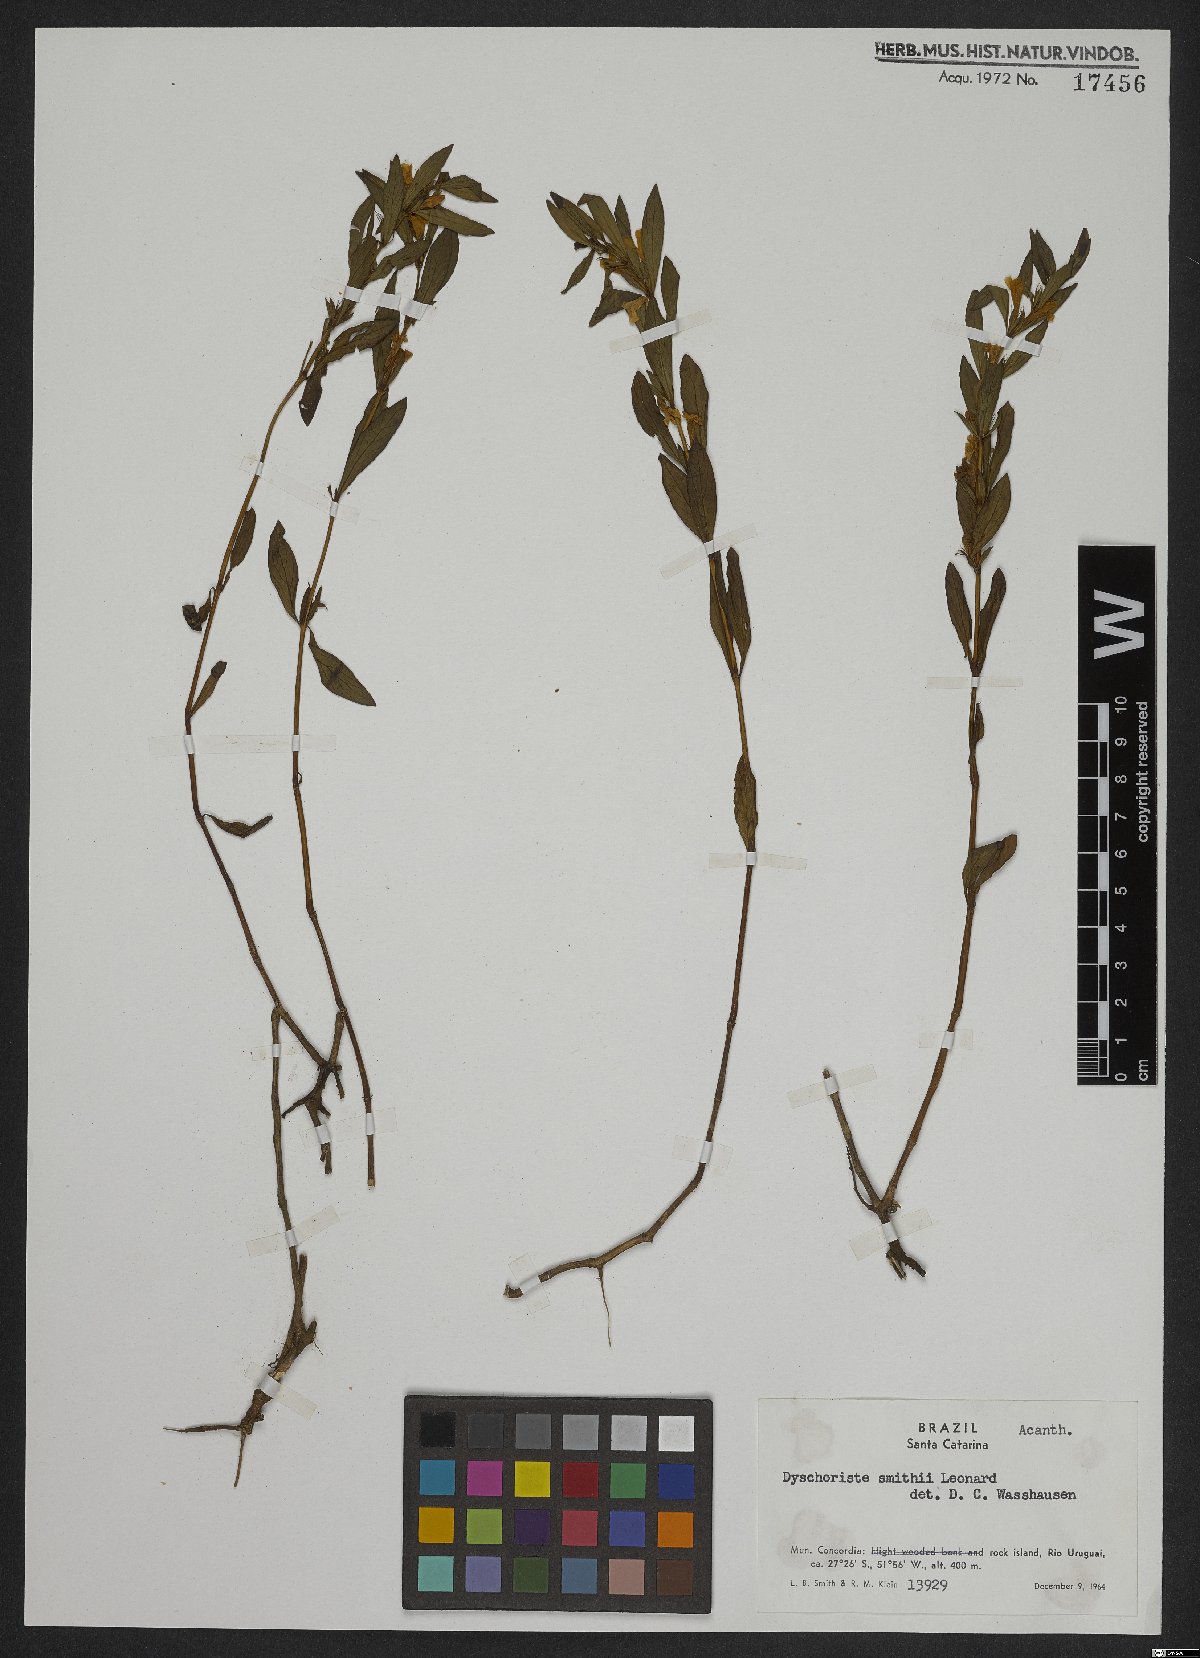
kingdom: Plantae
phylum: Tracheophyta
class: Magnoliopsida
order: Lamiales
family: Acanthaceae
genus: Dyschoriste
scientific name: Dyschoriste smithii
